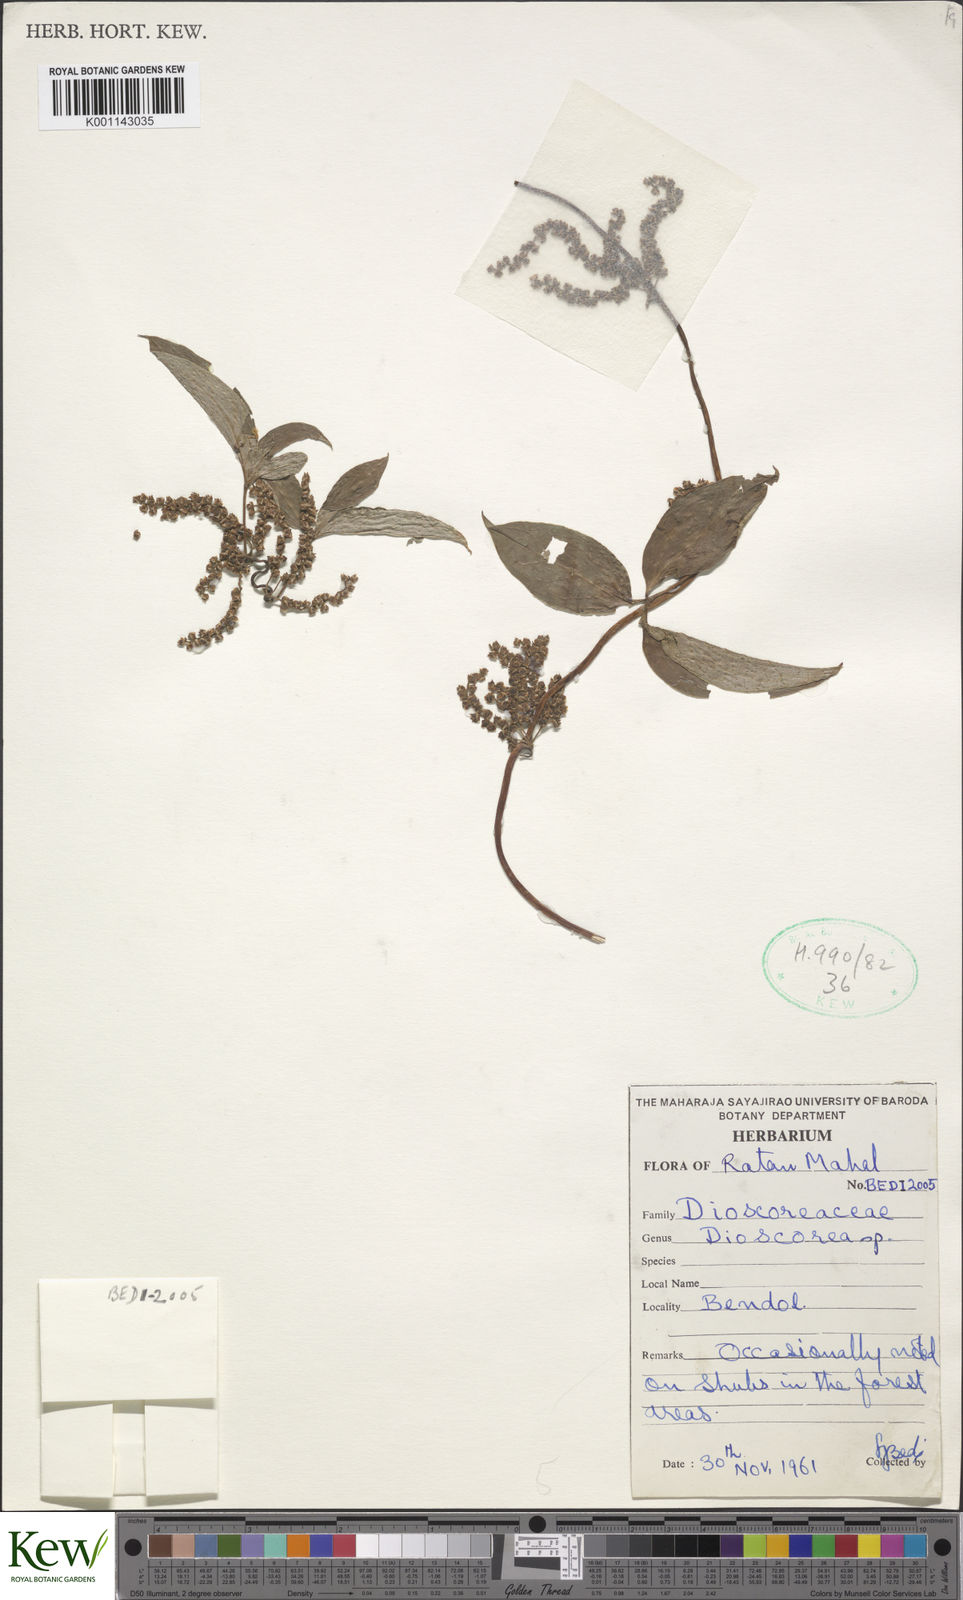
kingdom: Plantae
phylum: Tracheophyta
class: Liliopsida
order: Dioscoreales
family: Dioscoreaceae
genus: Dioscorea
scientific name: Dioscorea
